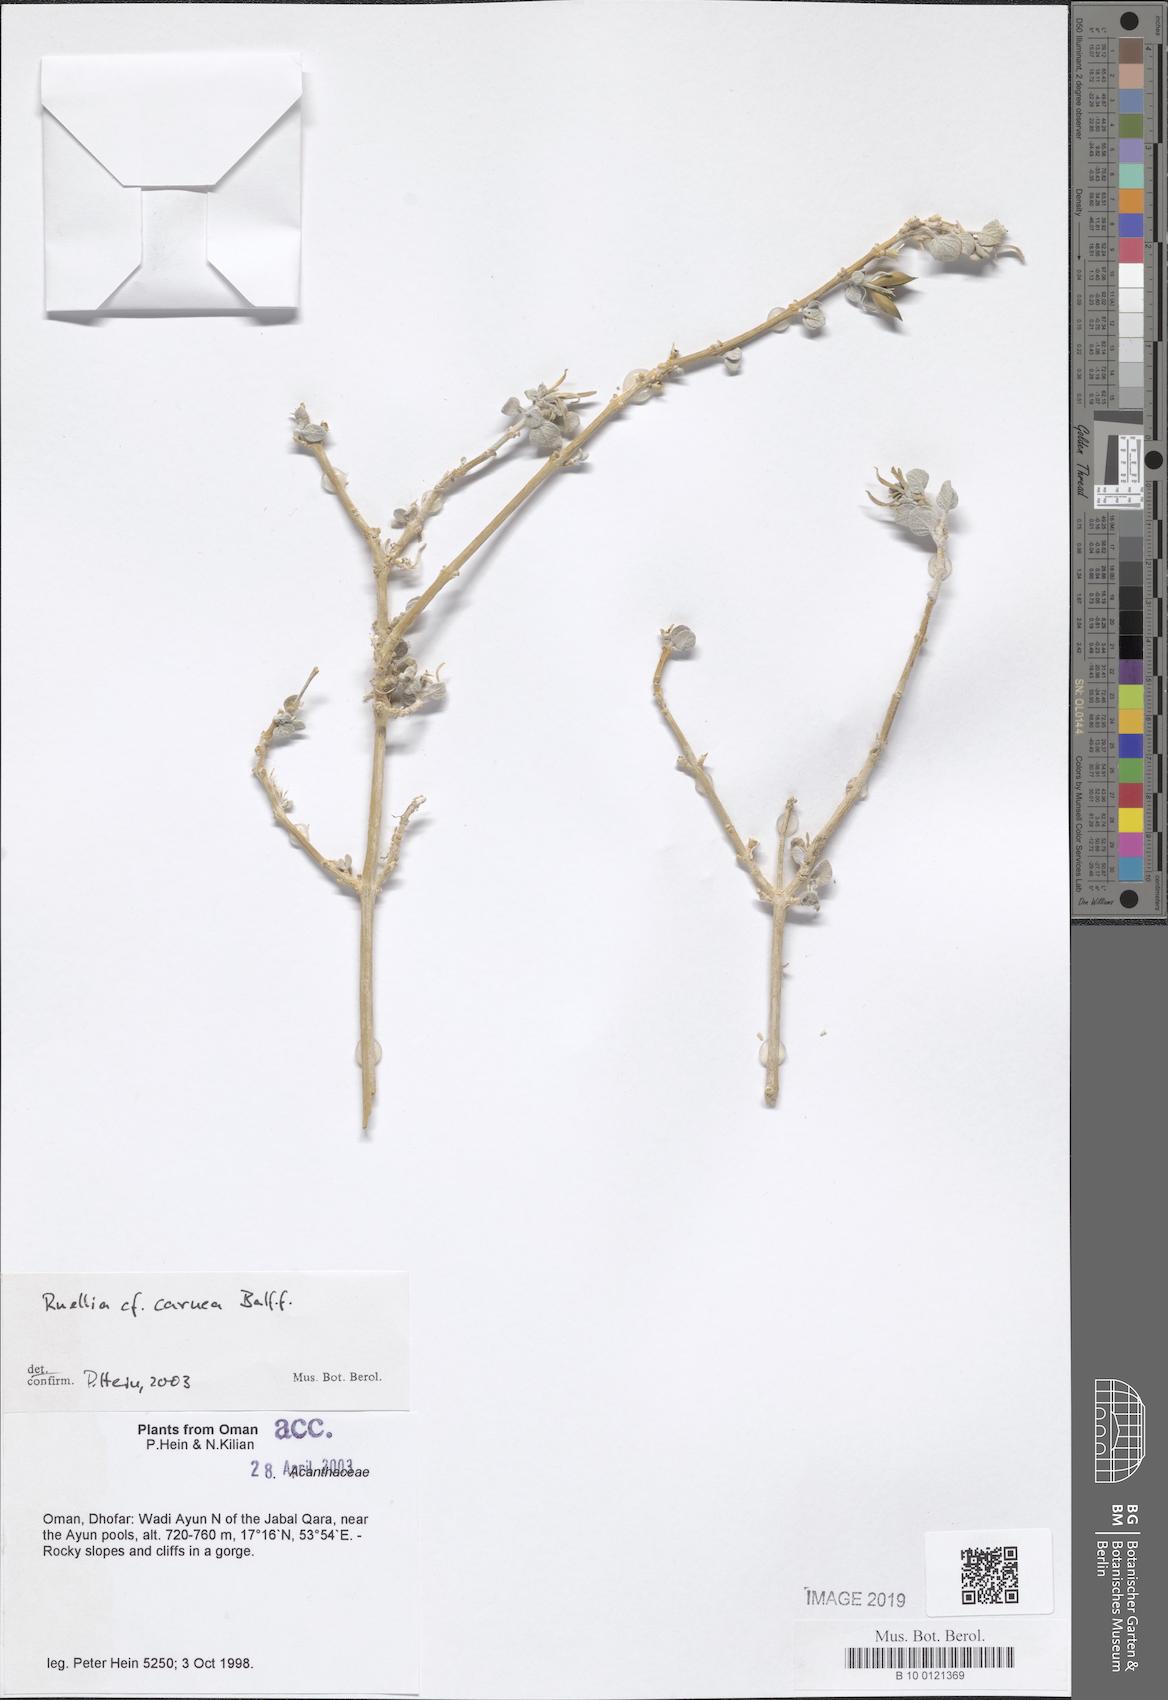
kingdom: Plantae
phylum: Tracheophyta
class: Magnoliopsida
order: Lamiales
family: Acanthaceae
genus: Ruellia
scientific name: Ruellia carnea
